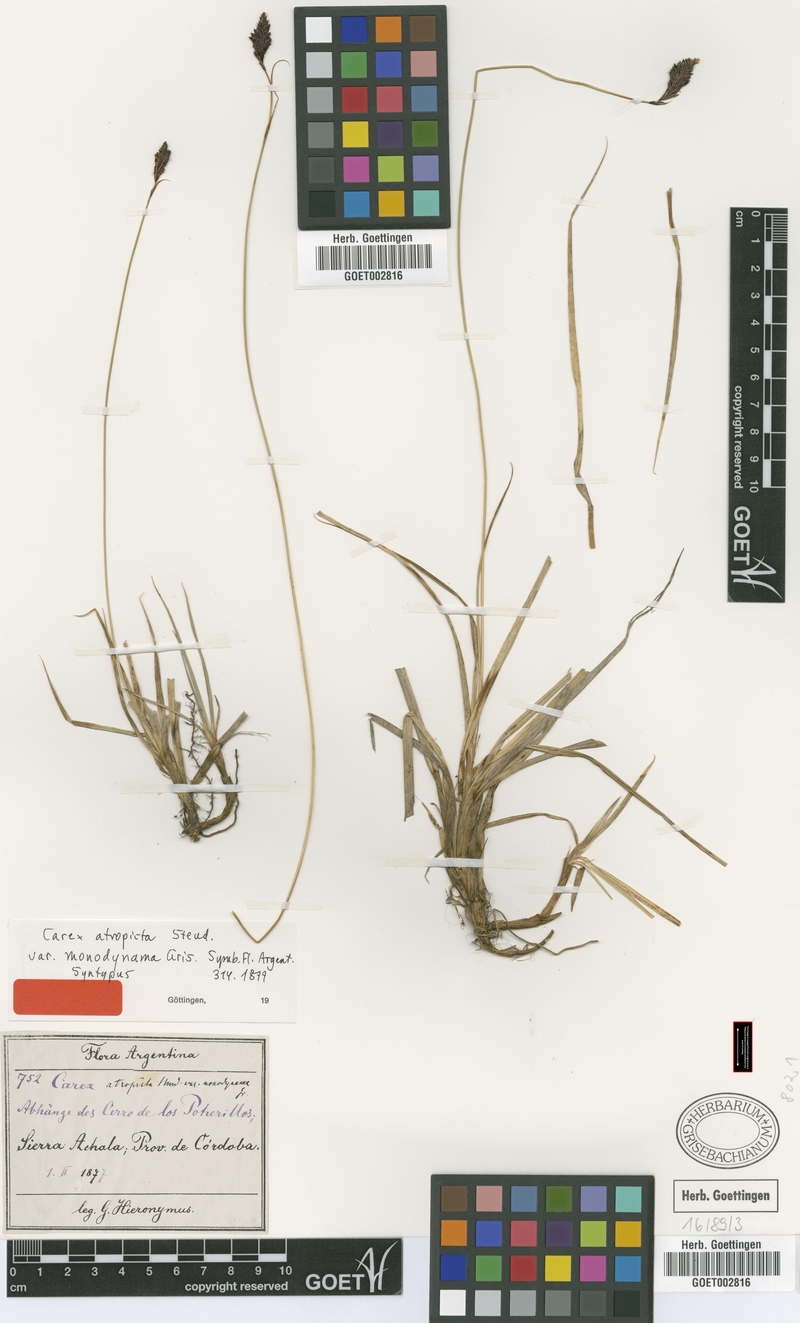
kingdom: Plantae
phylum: Tracheophyta
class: Liliopsida
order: Poales
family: Cyperaceae
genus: Carex
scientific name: Carex monodynama
